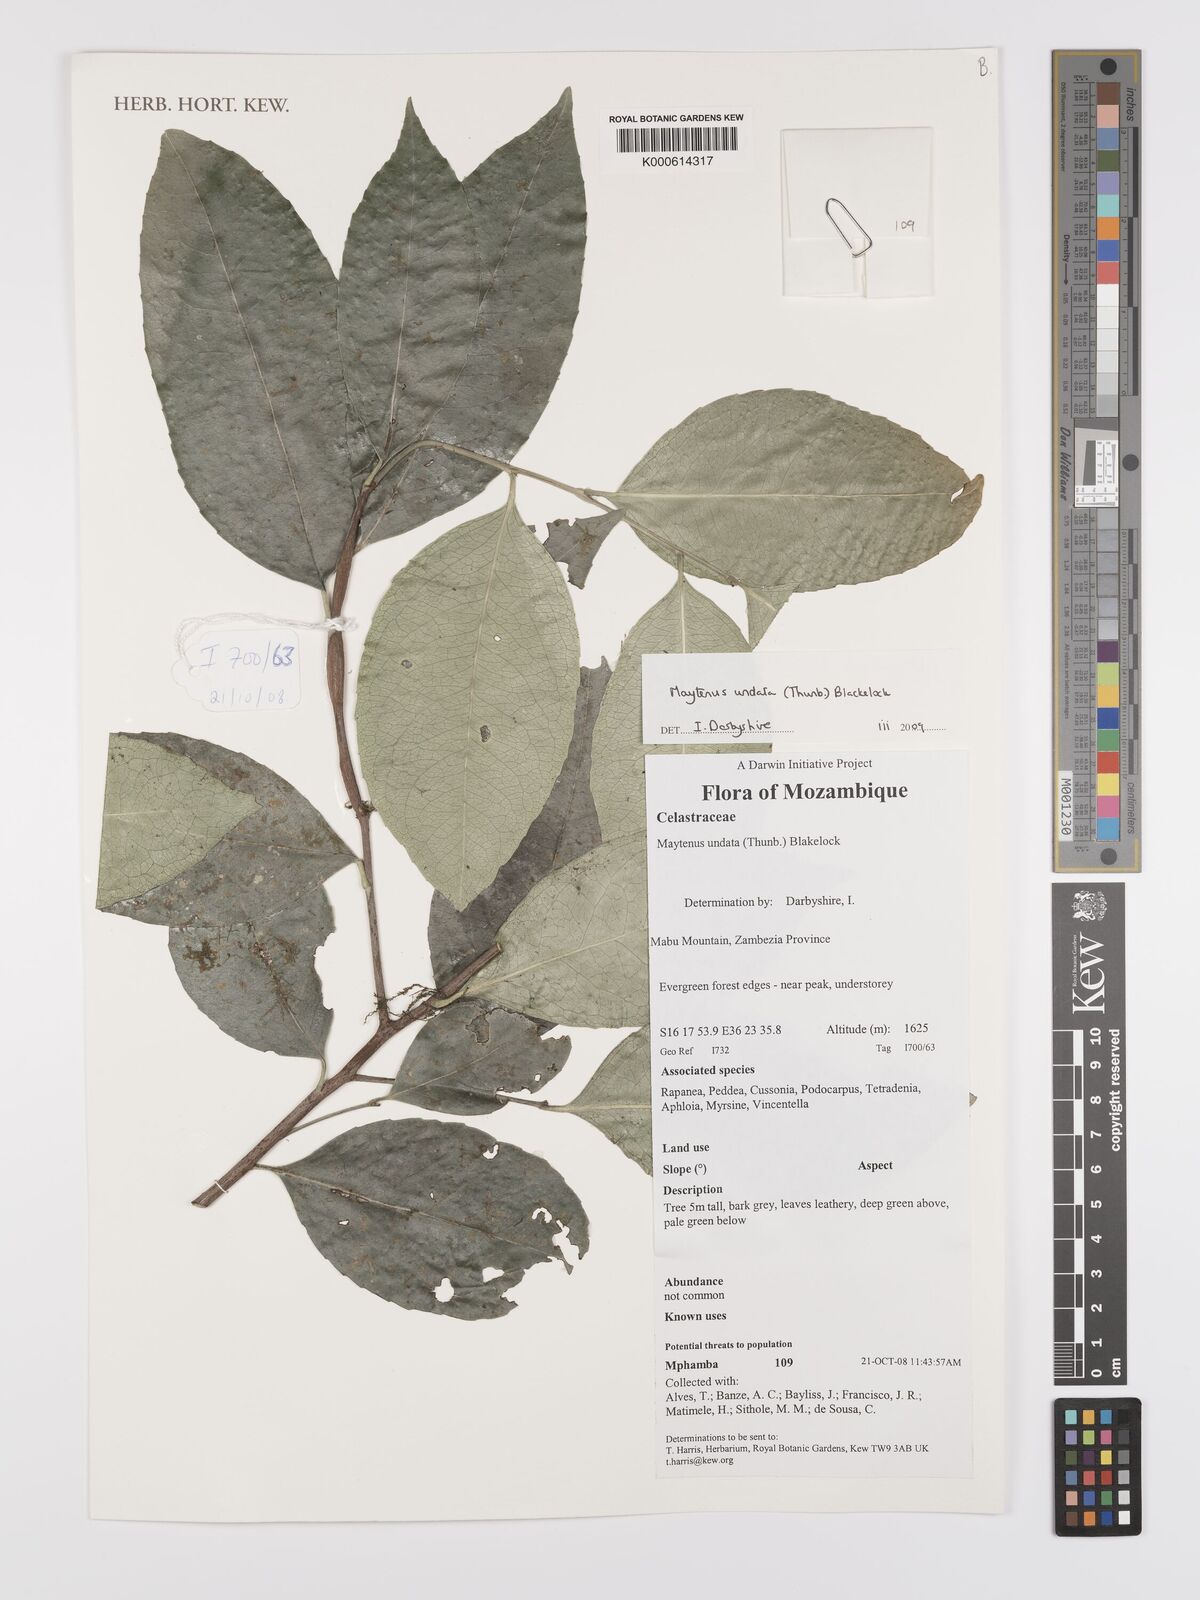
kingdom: Plantae
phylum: Tracheophyta
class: Magnoliopsida
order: Celastrales
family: Celastraceae
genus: Gymnosporia
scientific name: Gymnosporia undata
